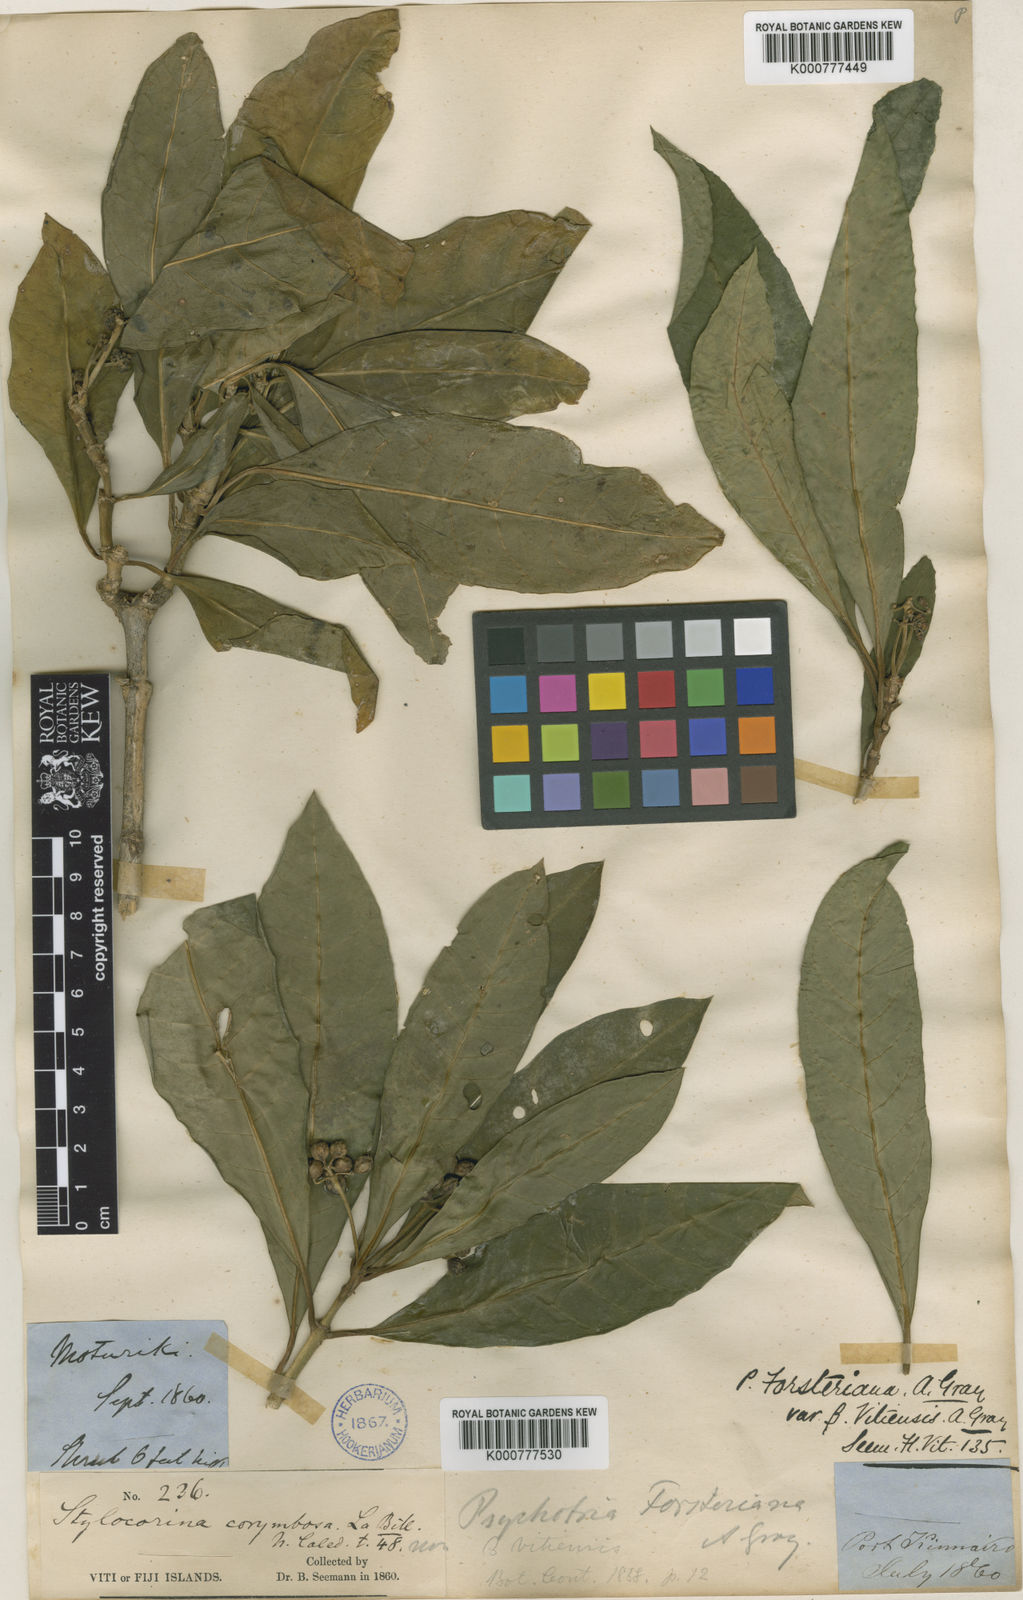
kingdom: Plantae
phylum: Tracheophyta
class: Magnoliopsida
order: Gentianales
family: Rubiaceae
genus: Eumachia
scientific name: Eumachia forsteriana
